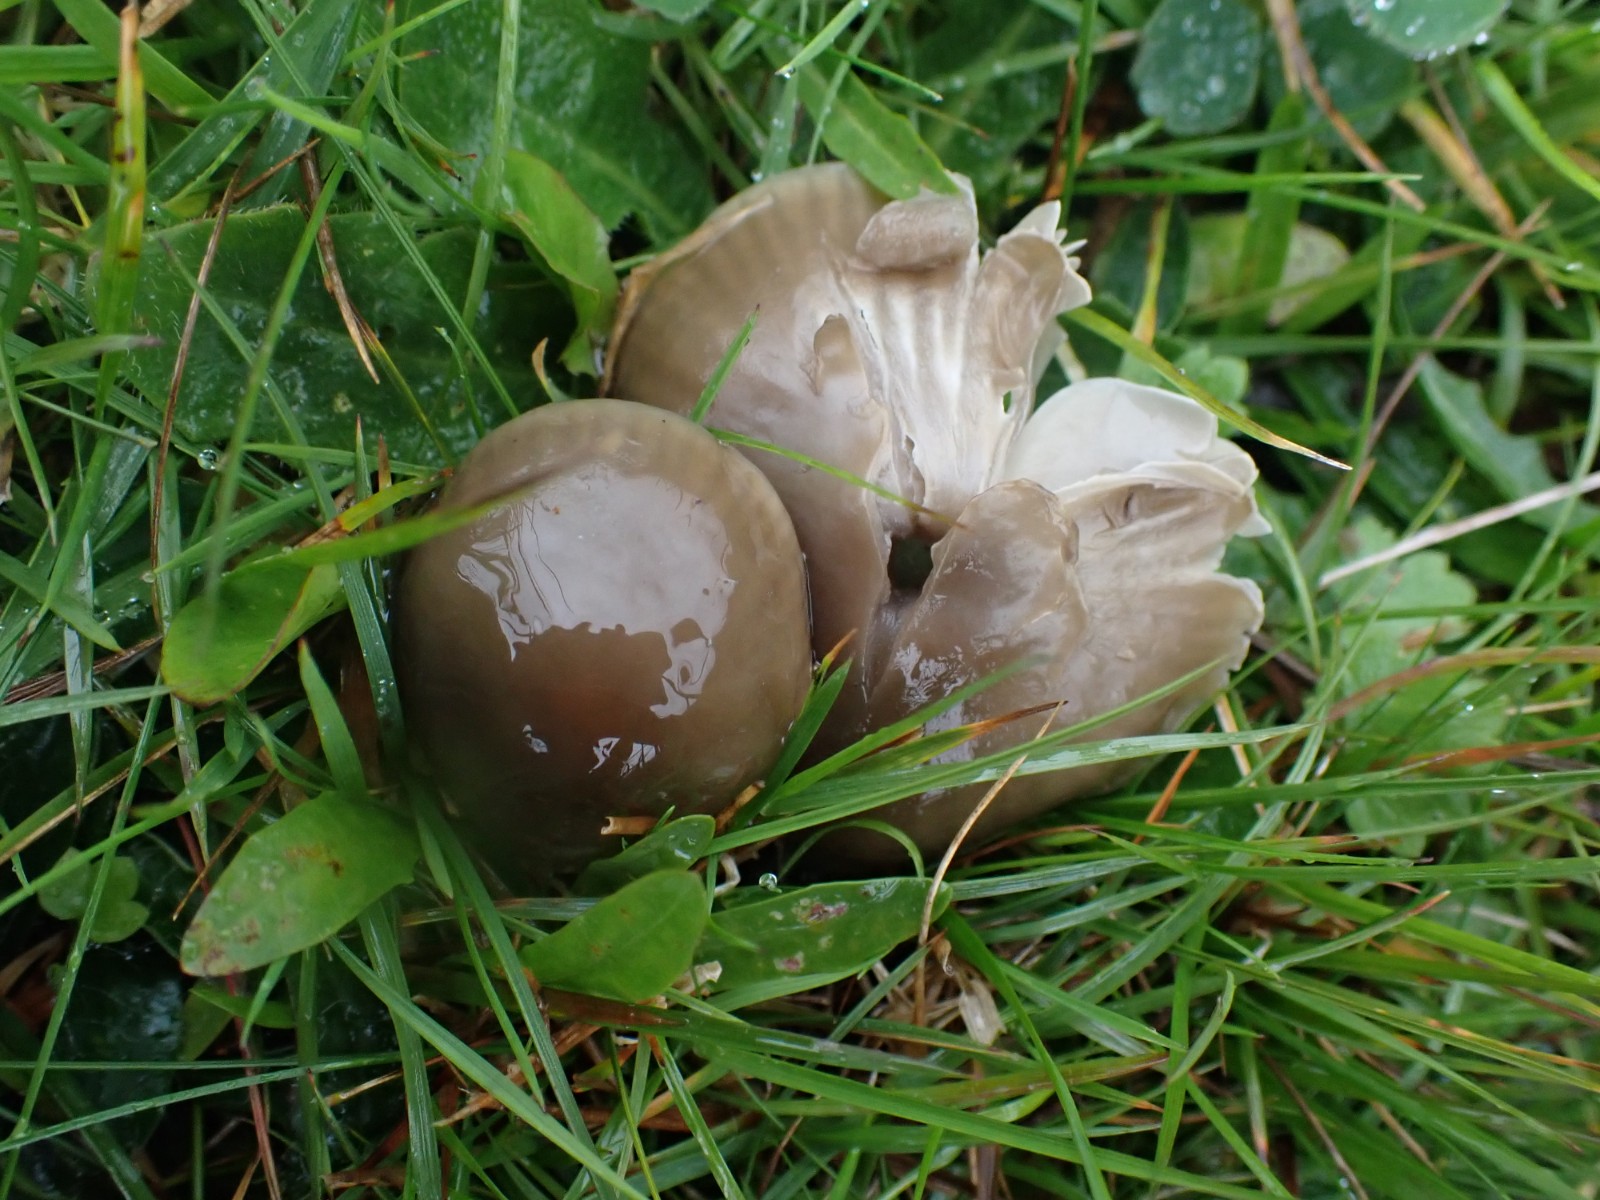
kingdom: Fungi
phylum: Basidiomycota
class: Agaricomycetes
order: Agaricales
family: Hygrophoraceae
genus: Gliophorus
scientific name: Gliophorus irrigatus
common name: slimet vokshat
